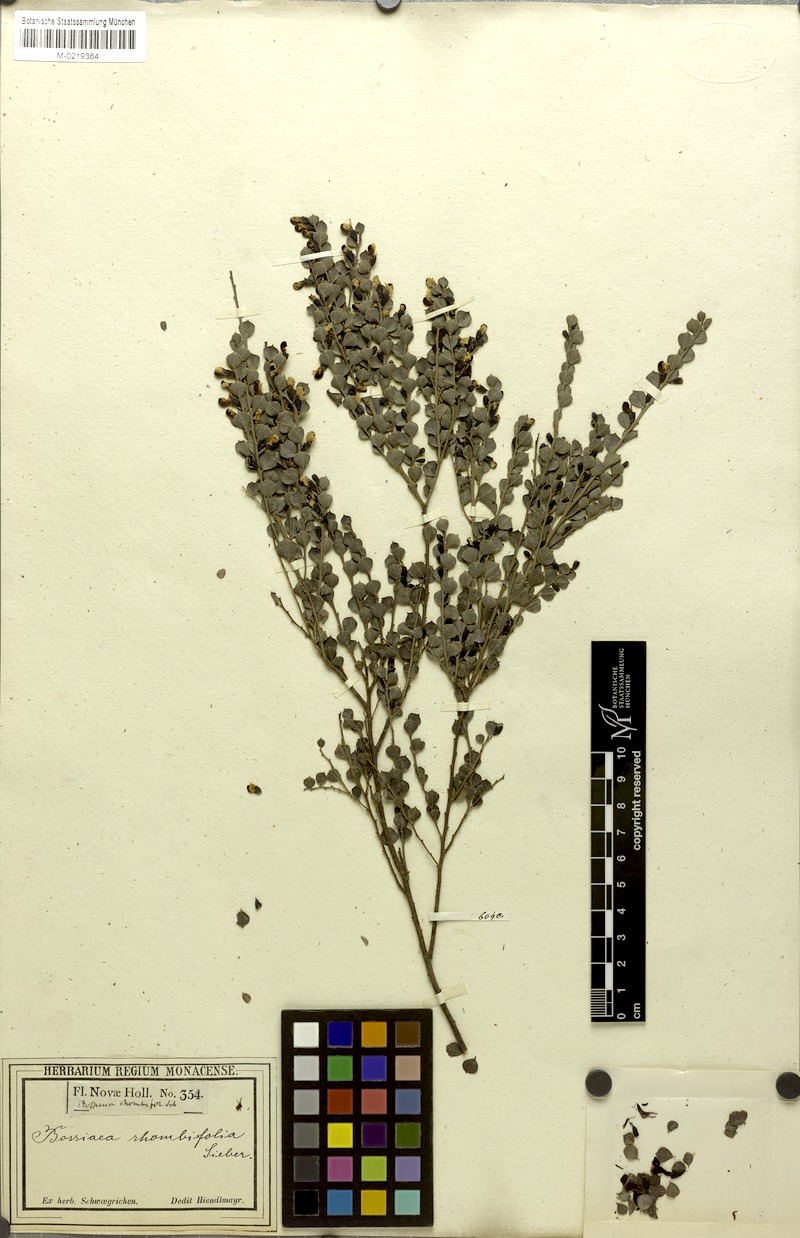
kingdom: Plantae
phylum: Tracheophyta
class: Magnoliopsida
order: Fabales
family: Fabaceae
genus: Bossiaea
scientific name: Bossiaea rhombifolia
